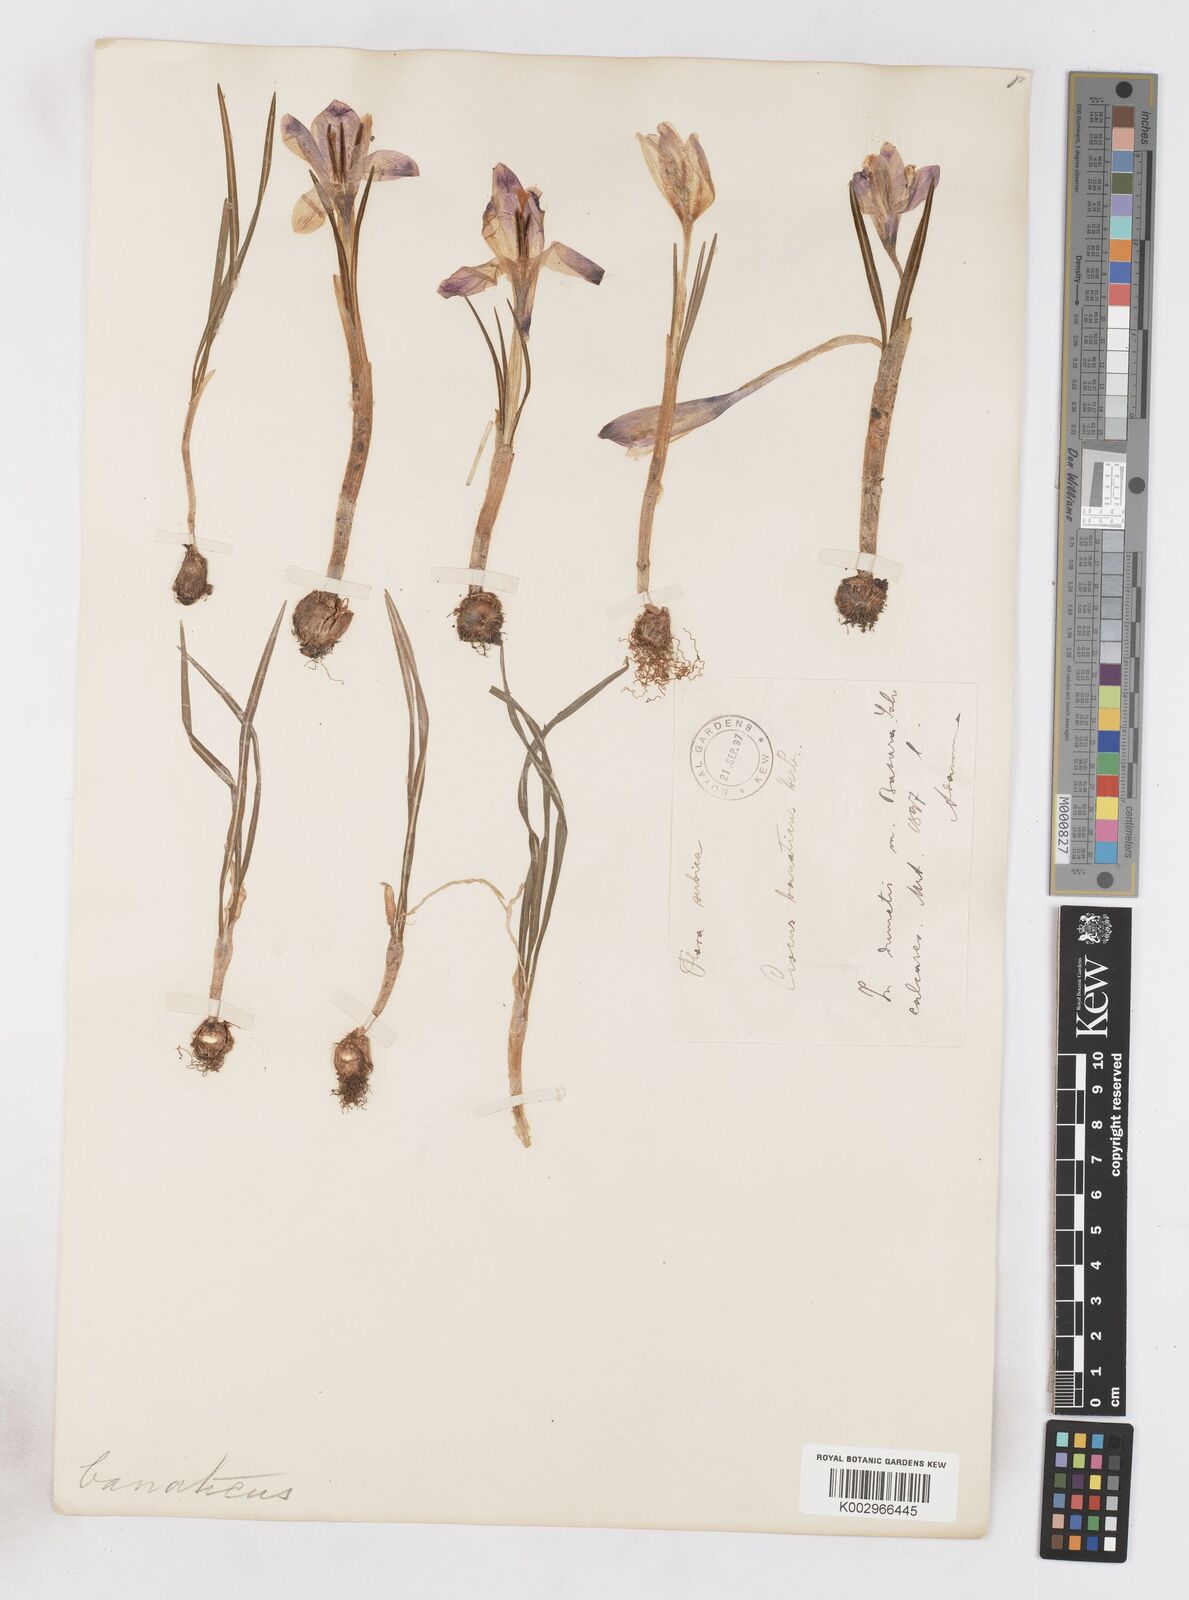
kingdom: Plantae
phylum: Tracheophyta
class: Liliopsida
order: Asparagales
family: Iridaceae
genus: Crocus
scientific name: Crocus vernus
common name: Spring crocus
